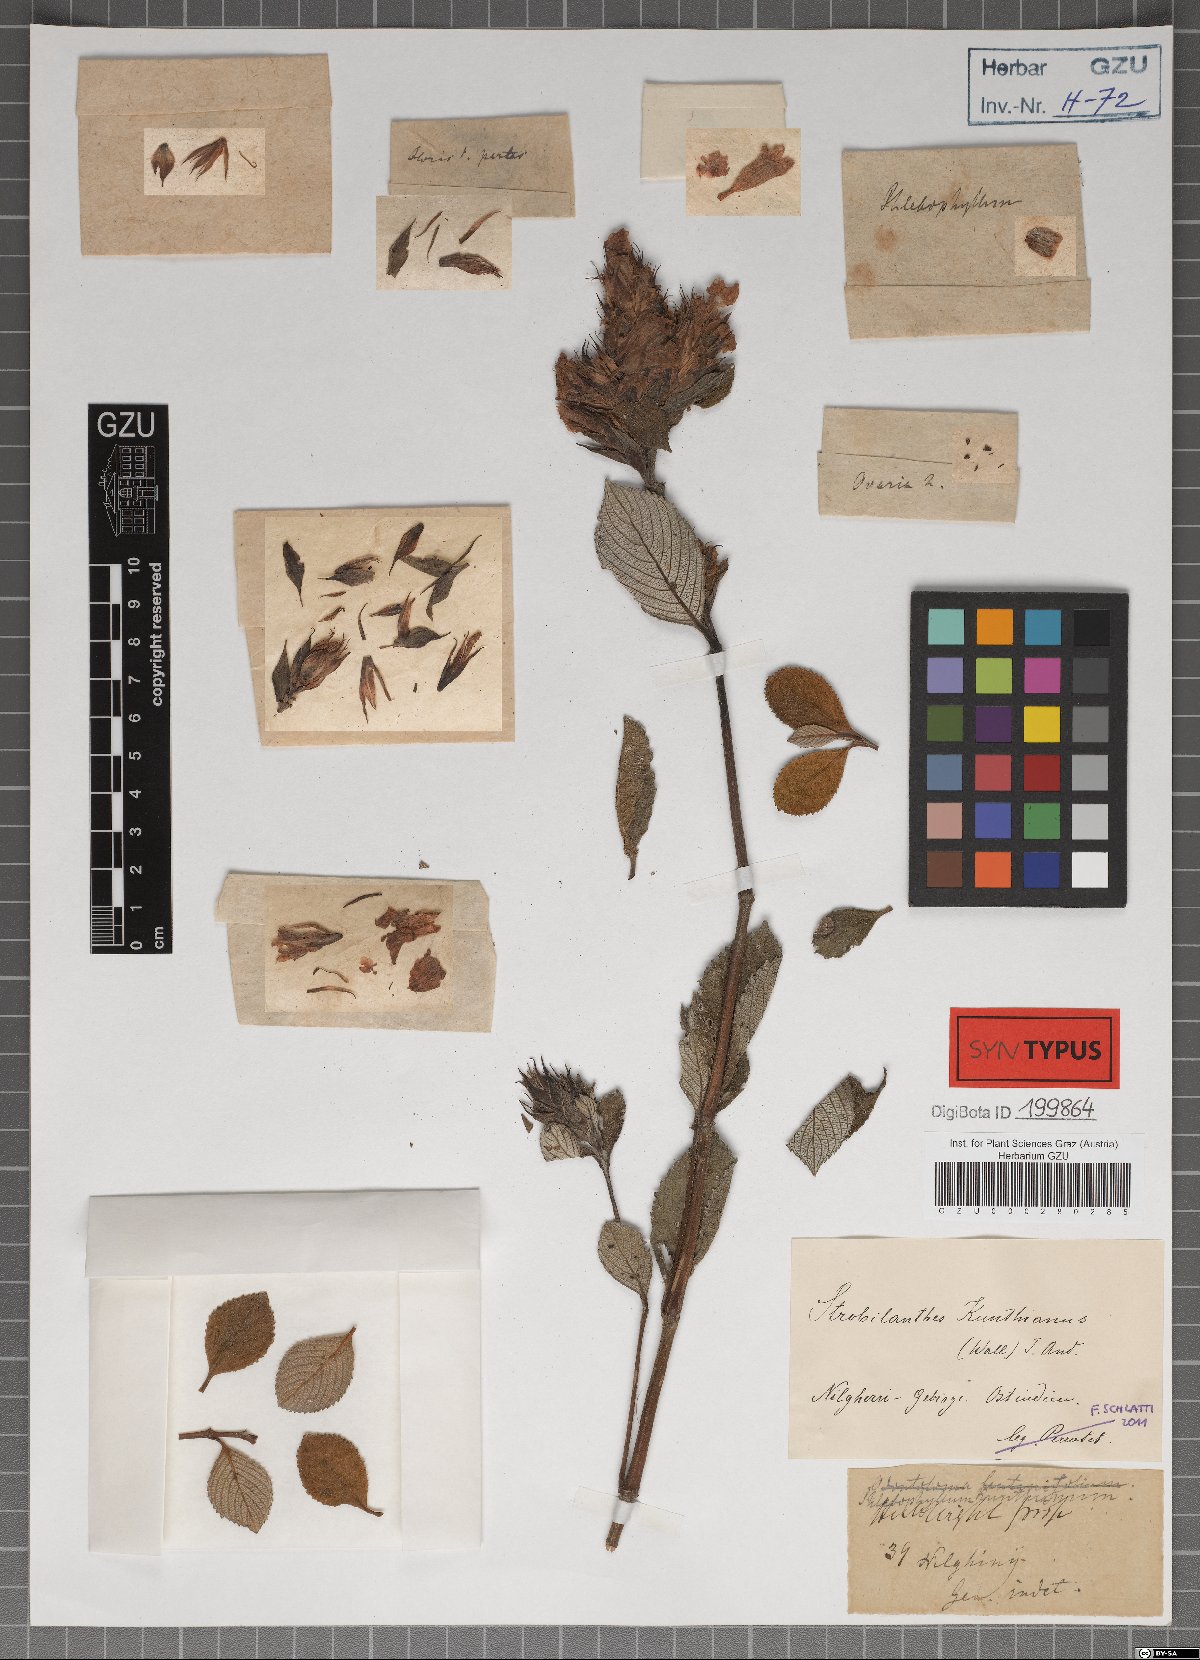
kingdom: Plantae
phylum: Tracheophyta
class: Magnoliopsida
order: Lamiales
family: Acanthaceae
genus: Strobilanthes
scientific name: Strobilanthes kunthiana
